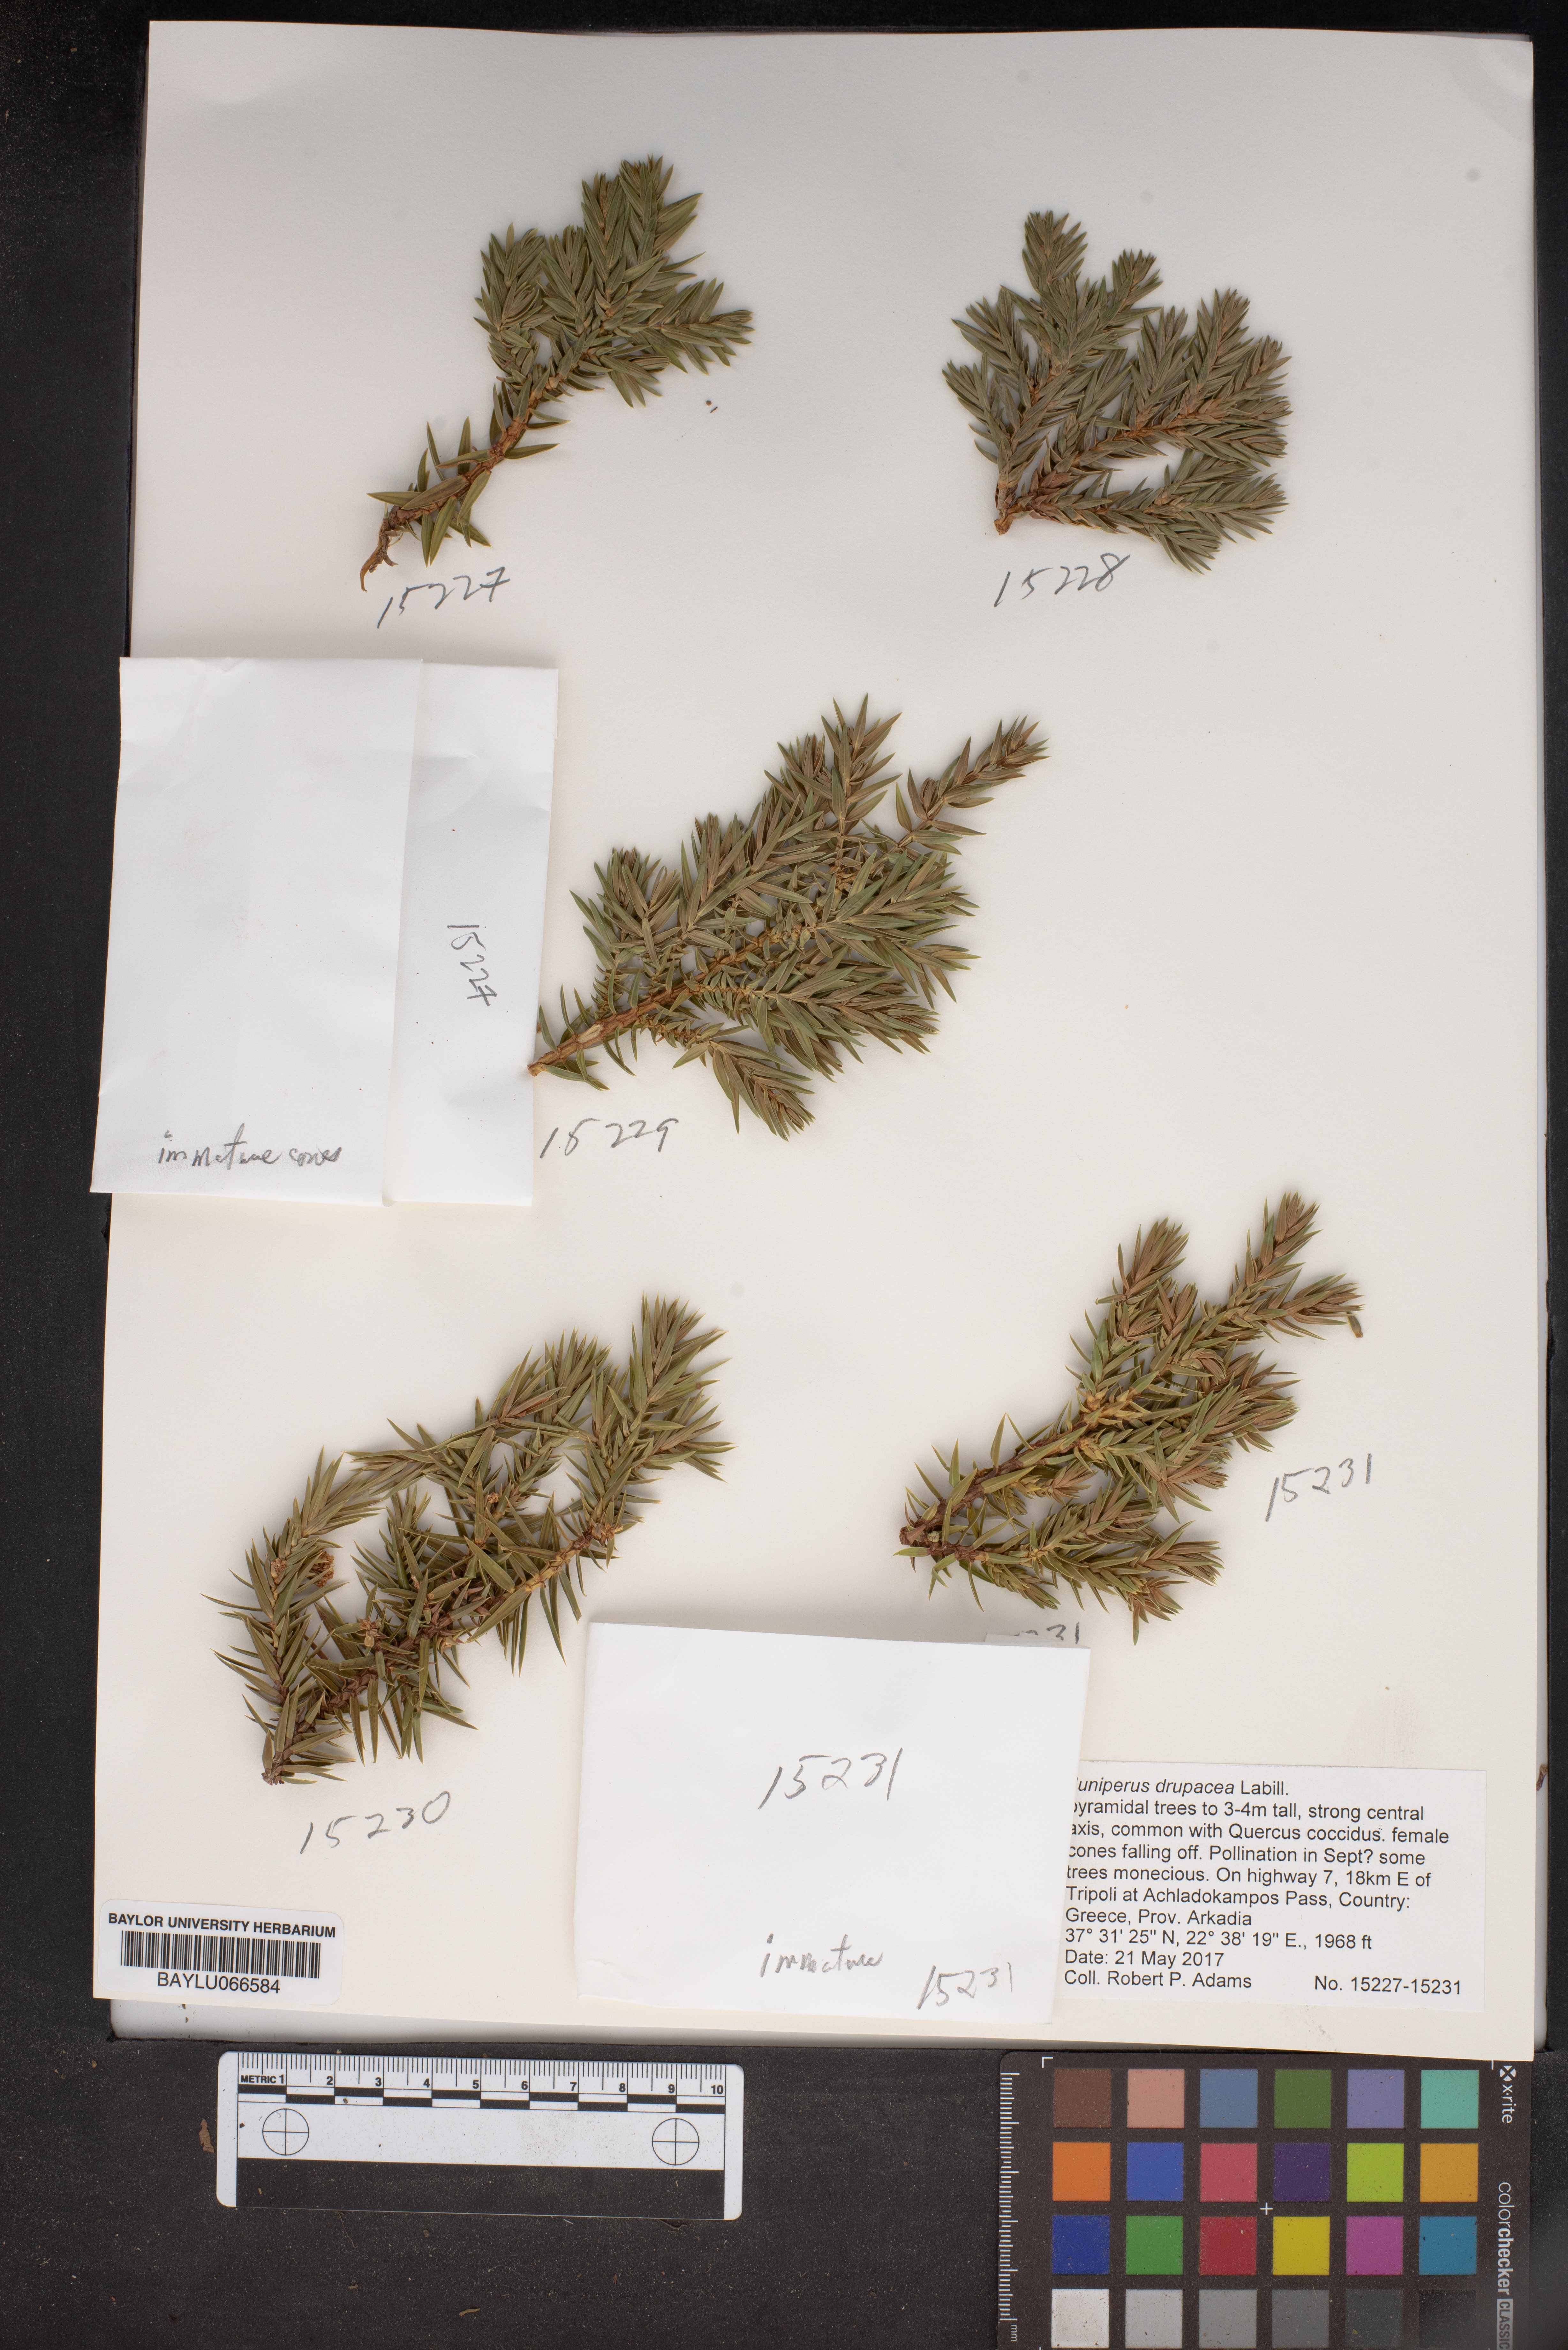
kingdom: Plantae
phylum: Tracheophyta
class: Pinopsida
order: Pinales
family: Cupressaceae
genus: Juniperus
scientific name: Juniperus drupacea
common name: Syrian juniper
